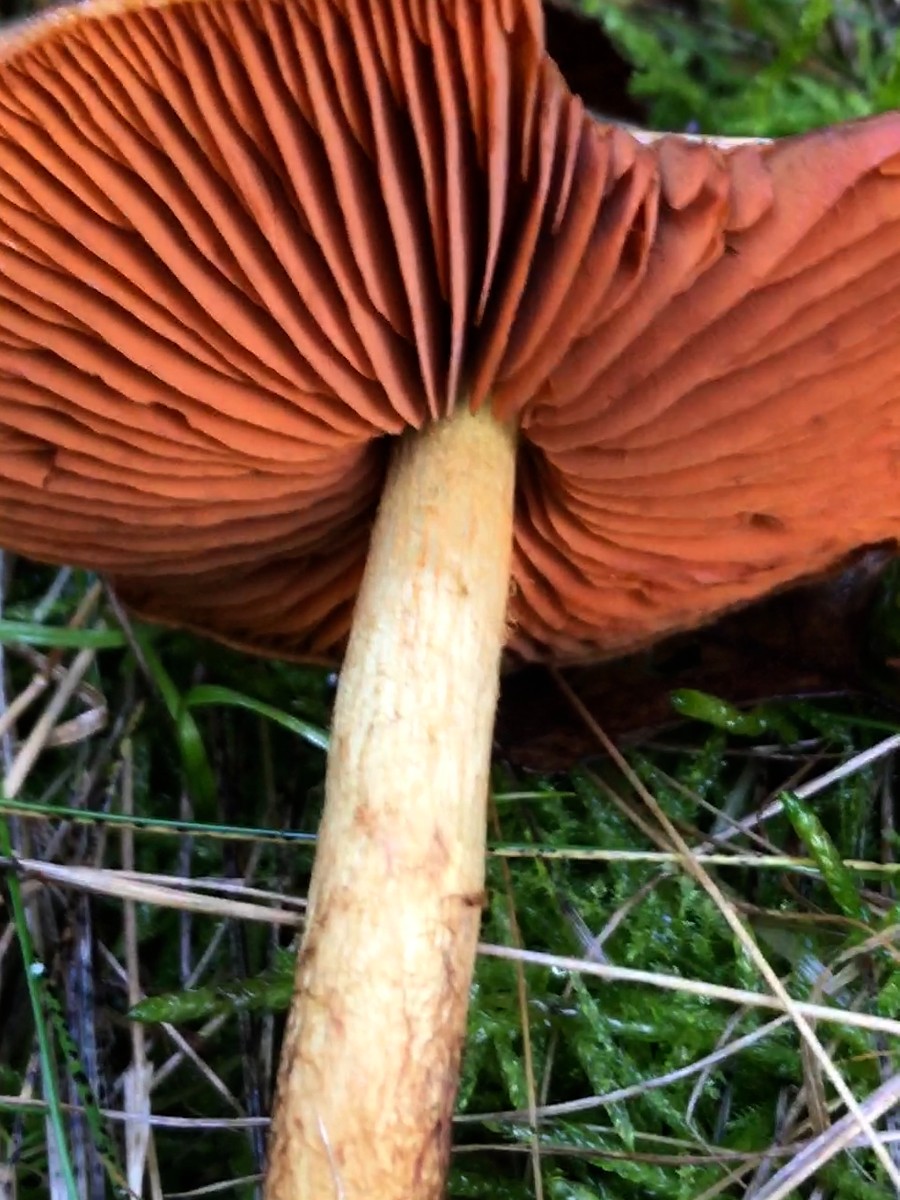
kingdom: Fungi
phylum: Basidiomycota
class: Agaricomycetes
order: Agaricales
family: Cortinariaceae
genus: Cortinarius
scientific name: Cortinarius
